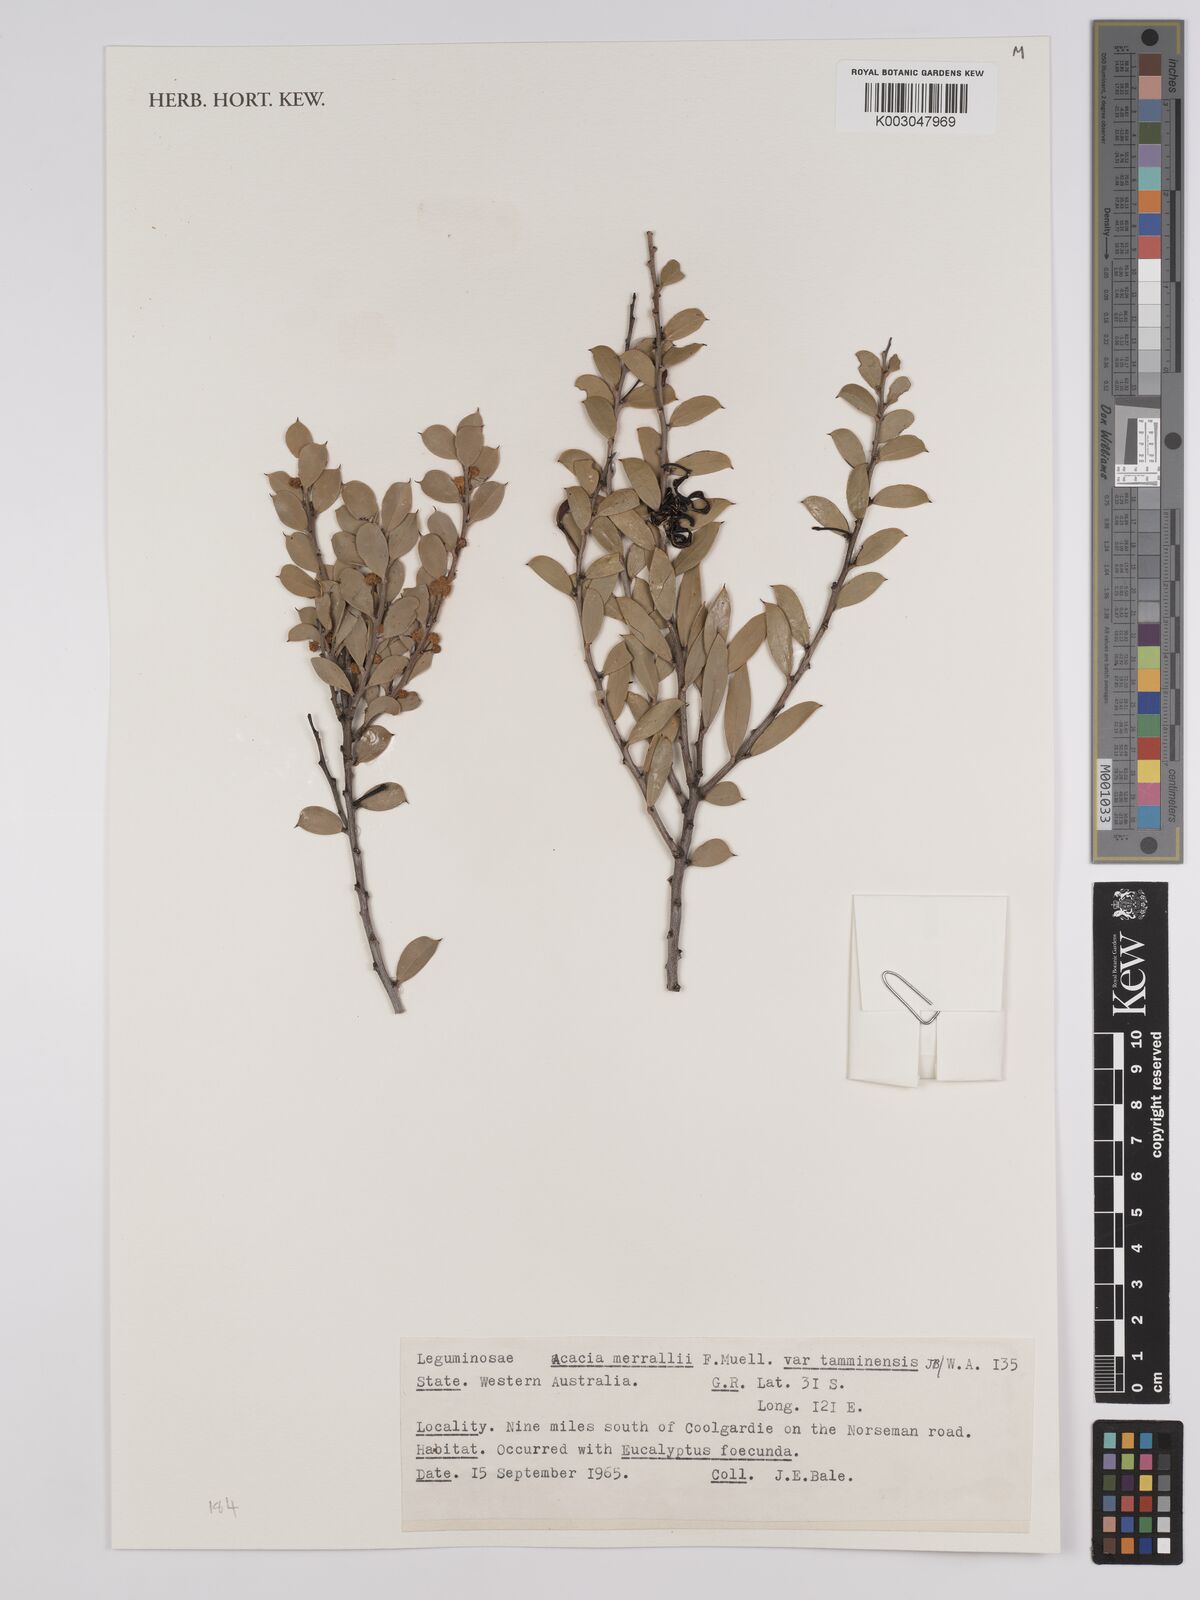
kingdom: Plantae
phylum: Tracheophyta
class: Magnoliopsida
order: Fabales
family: Fabaceae
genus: Acacia
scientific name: Acacia merrallii
